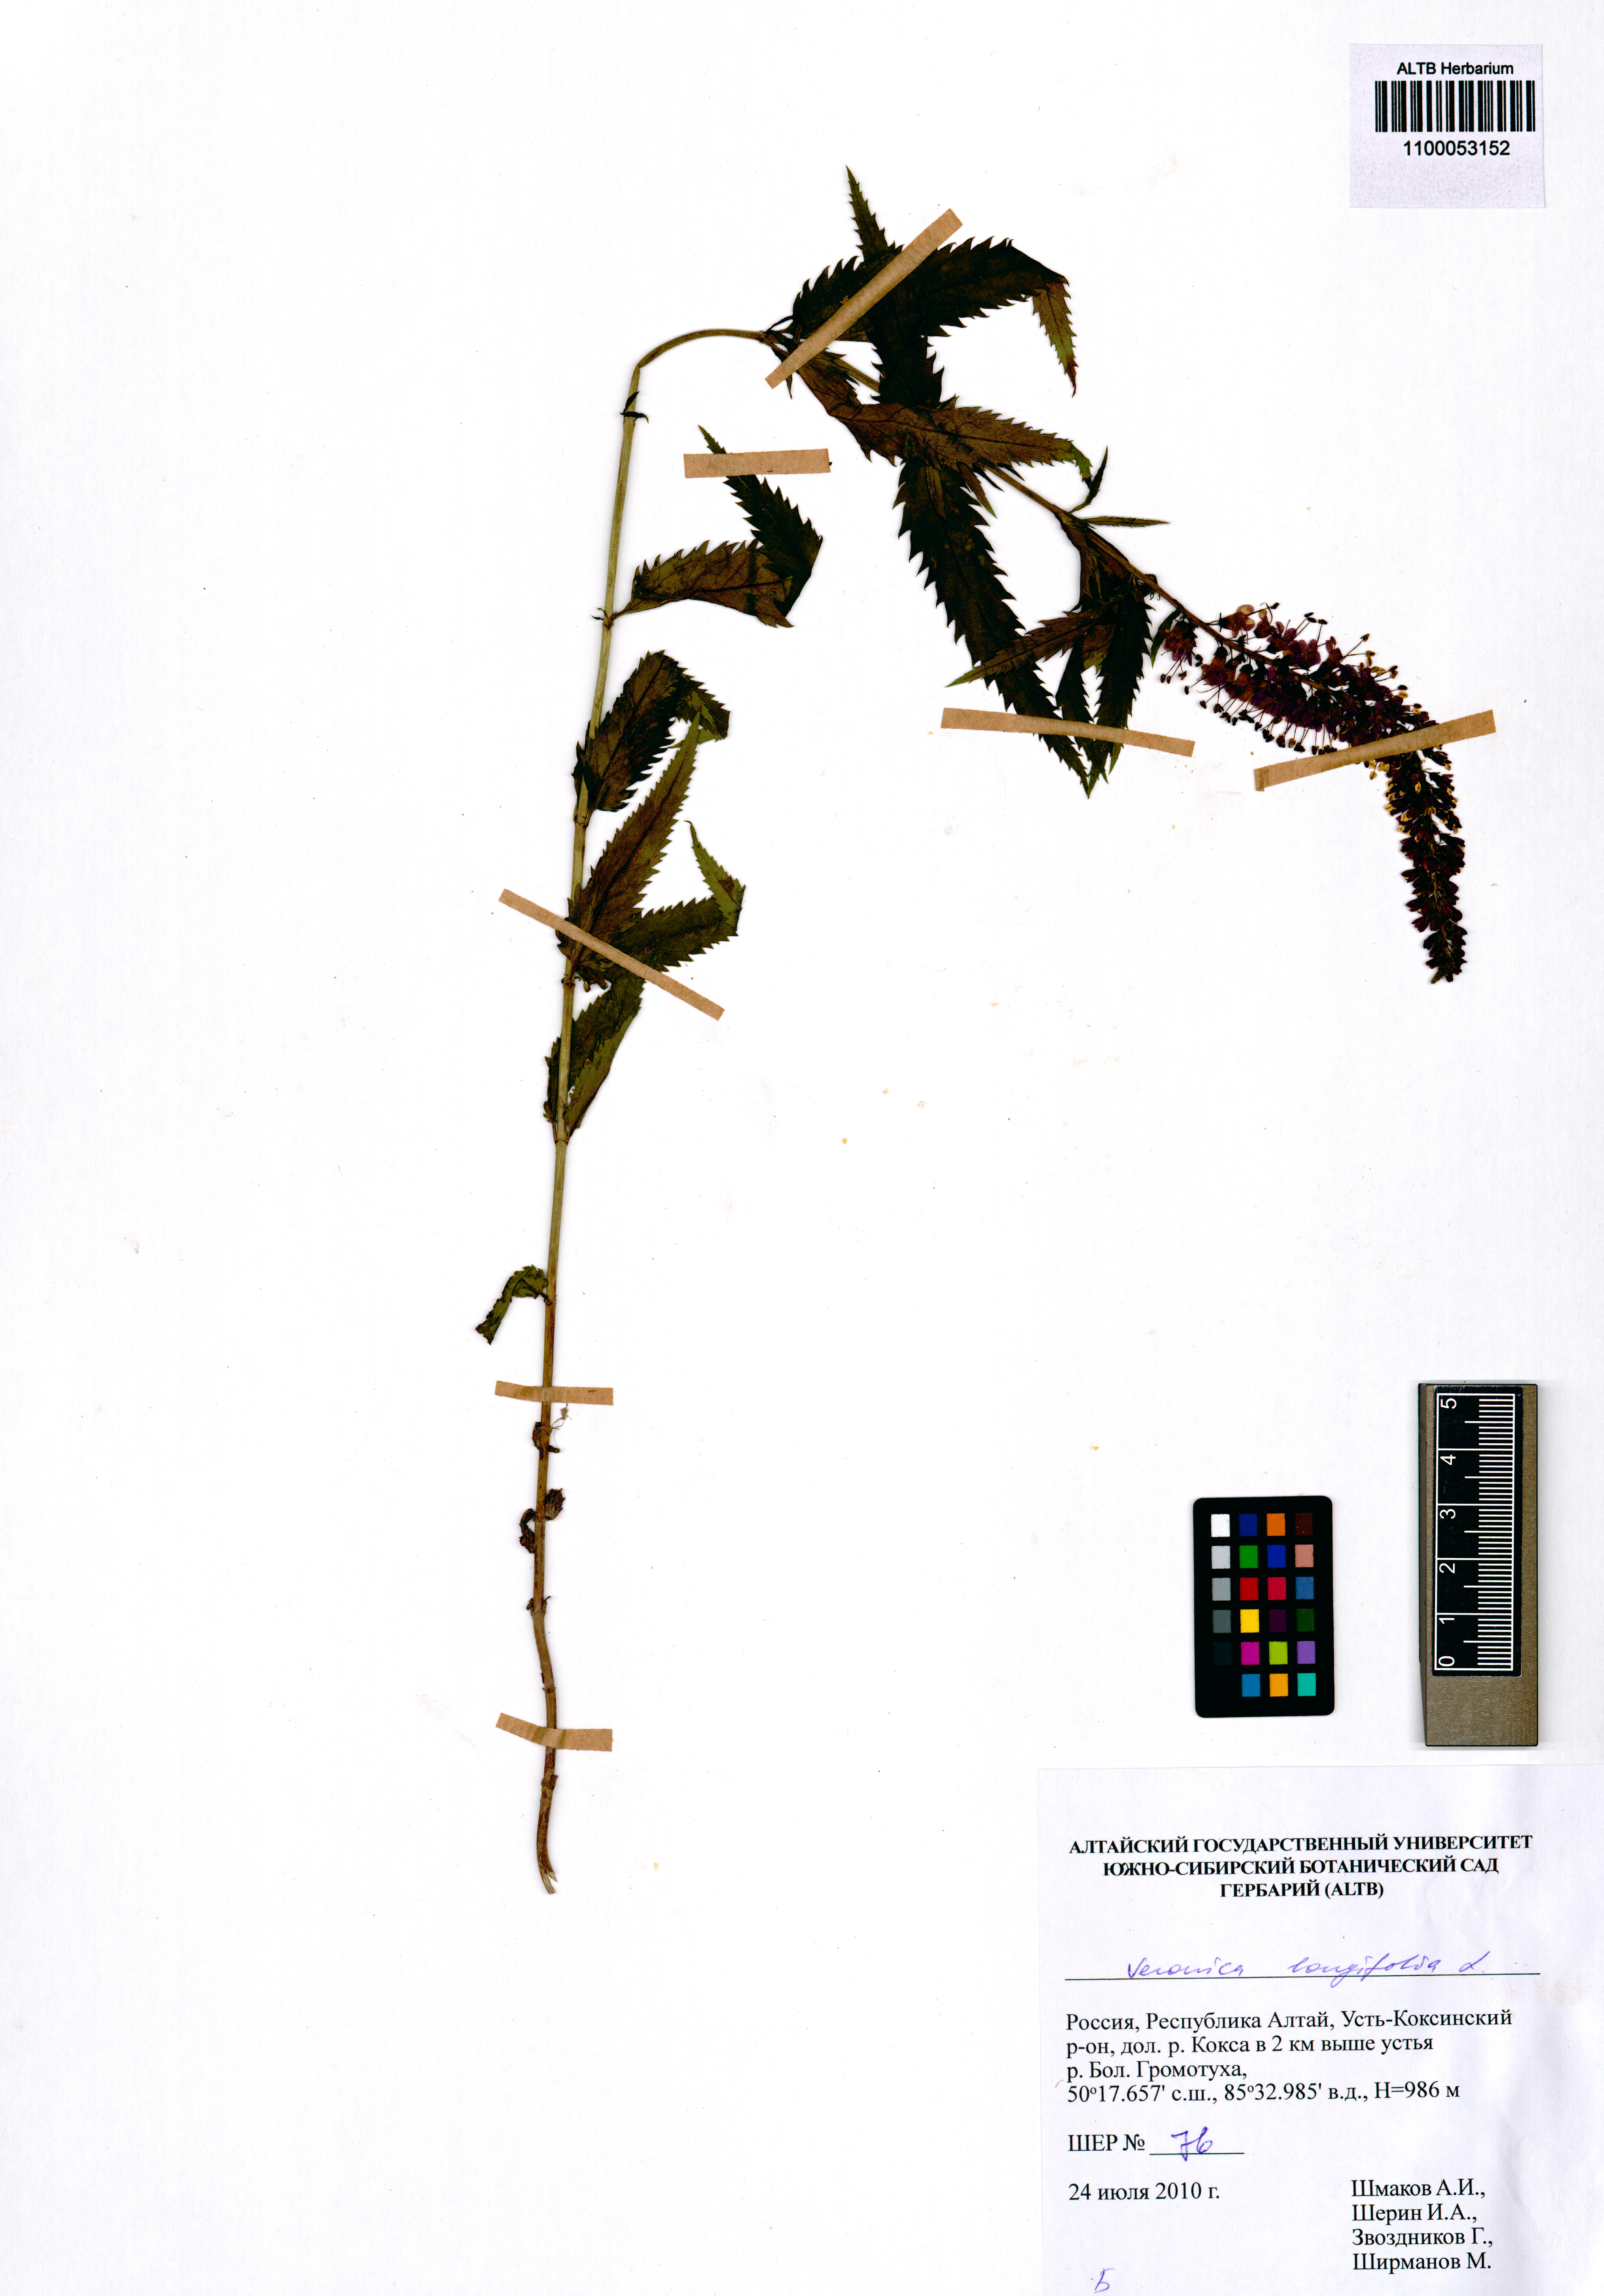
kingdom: Plantae
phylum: Tracheophyta
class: Magnoliopsida
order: Lamiales
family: Plantaginaceae
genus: Veronica
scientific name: Veronica longifolia
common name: Garden speedwell
